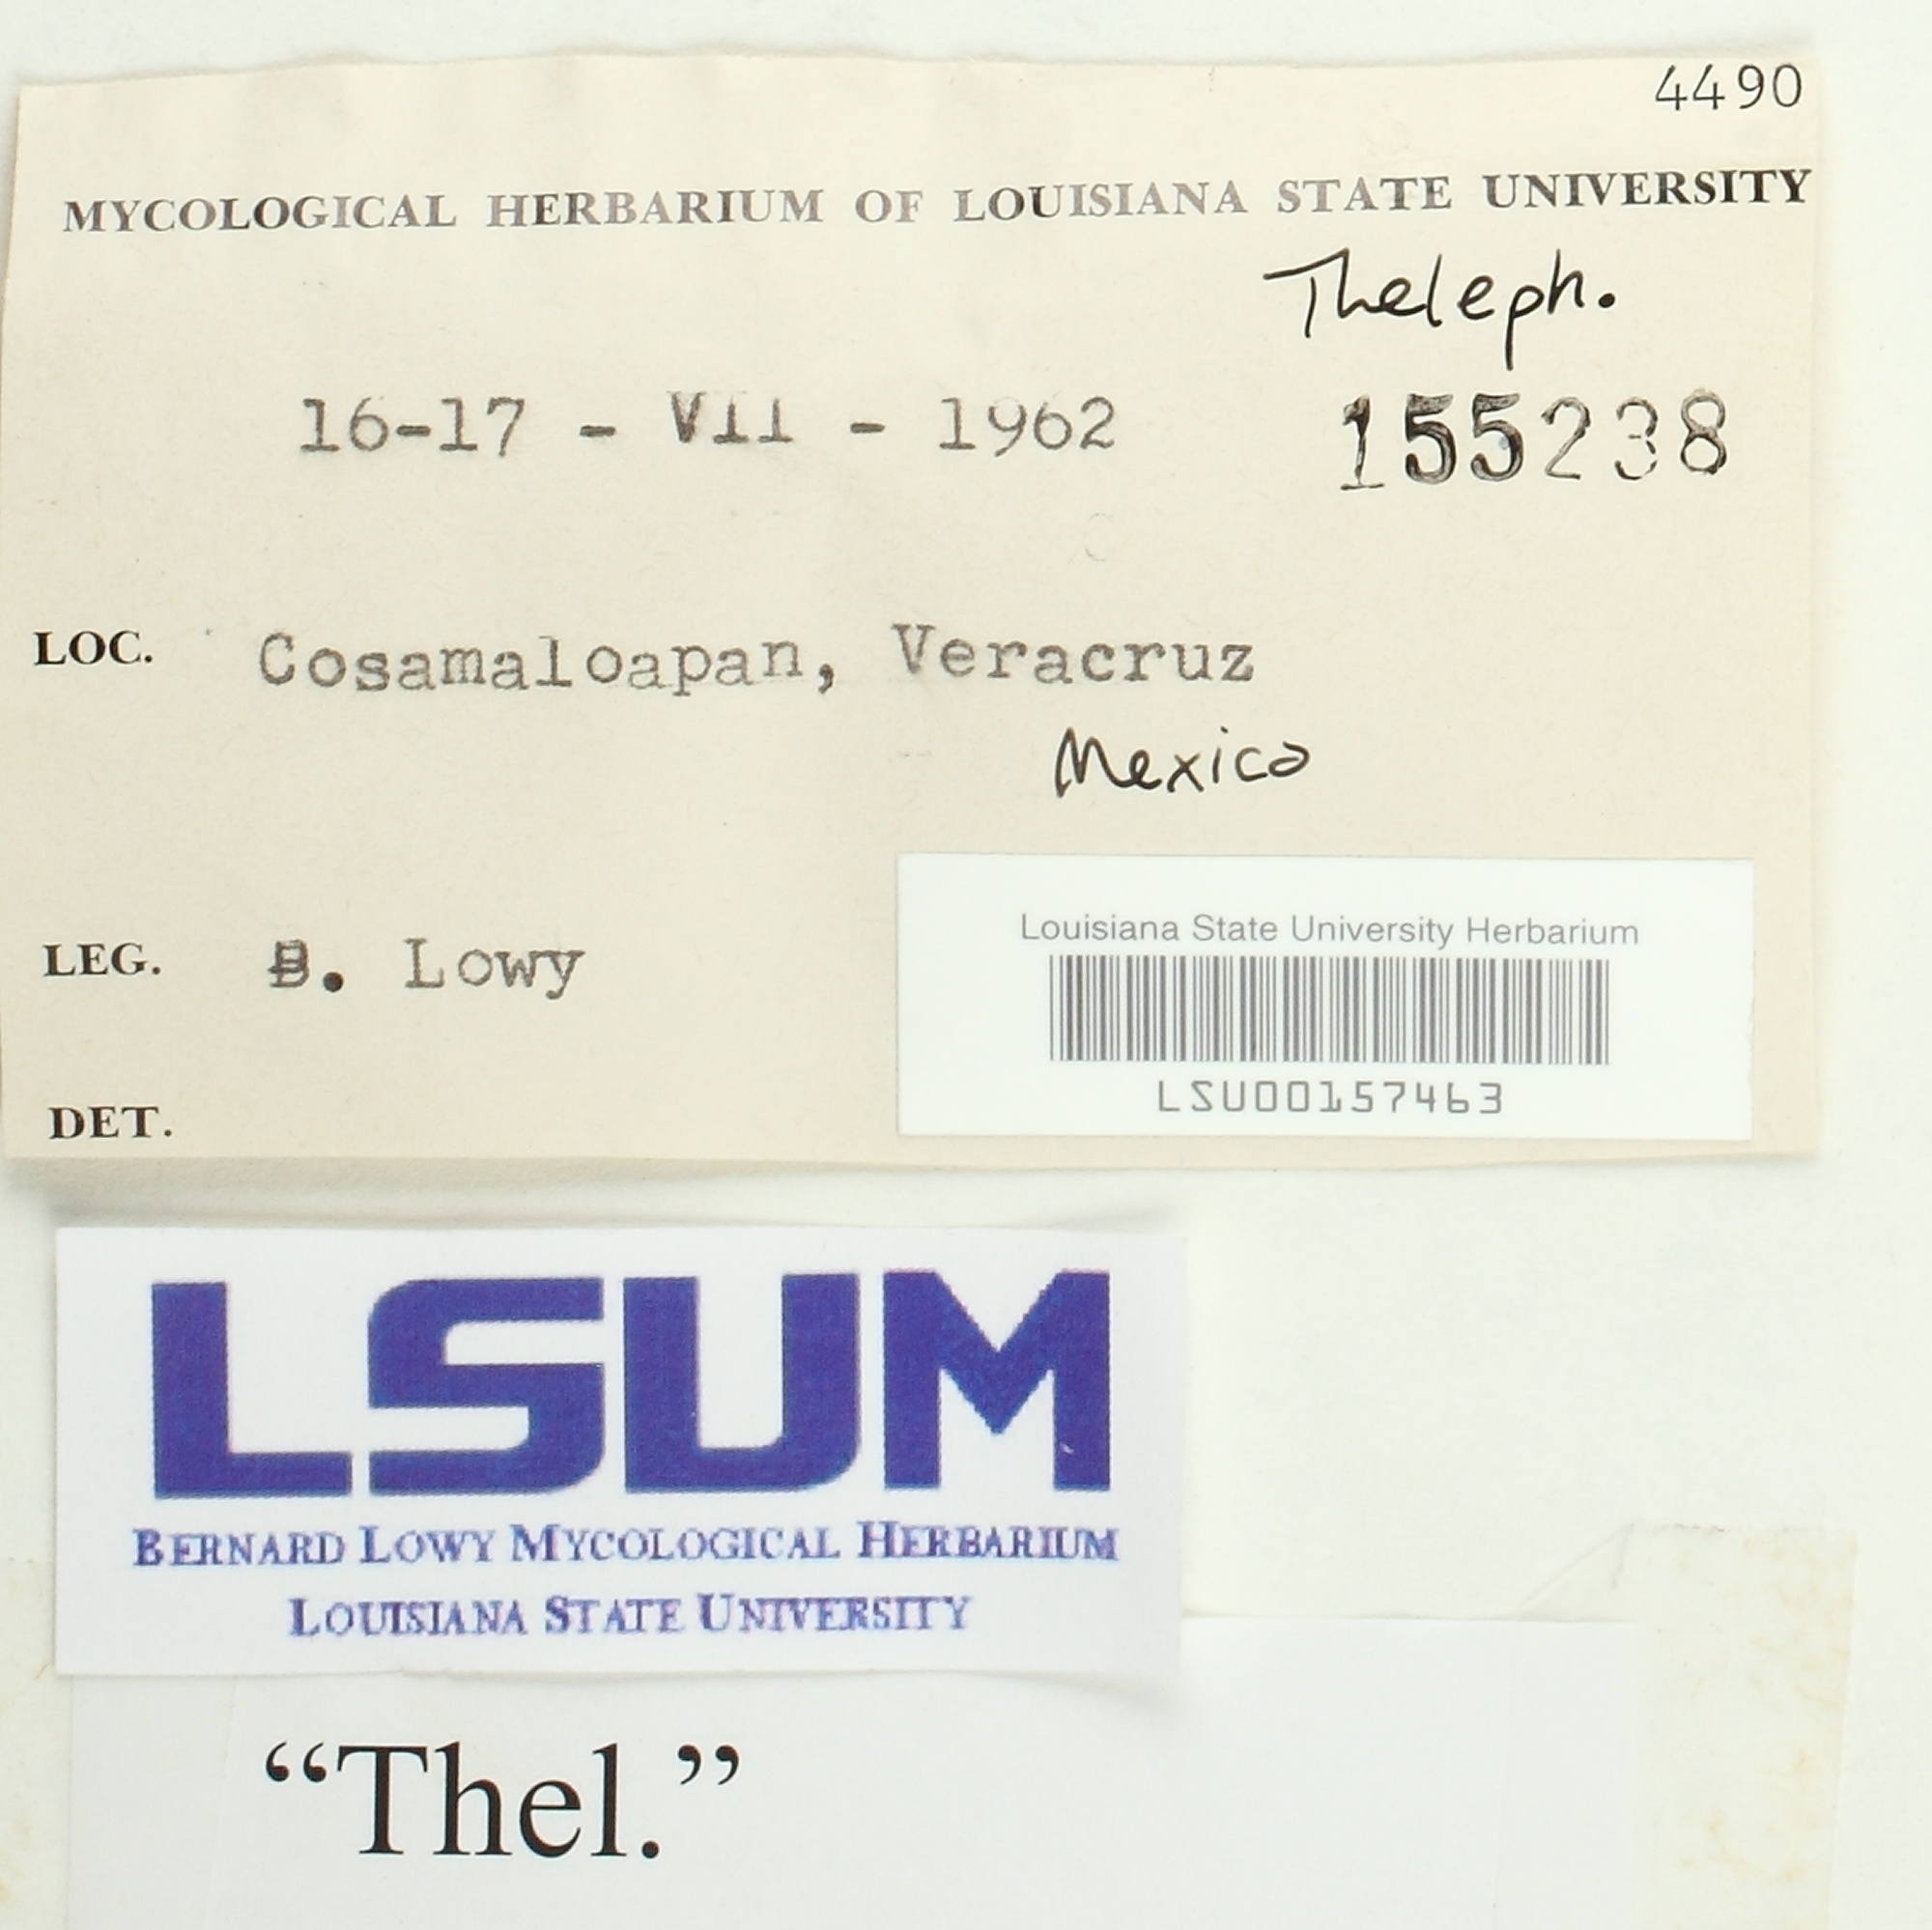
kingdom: Fungi
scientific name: Fungi
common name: Fungi
